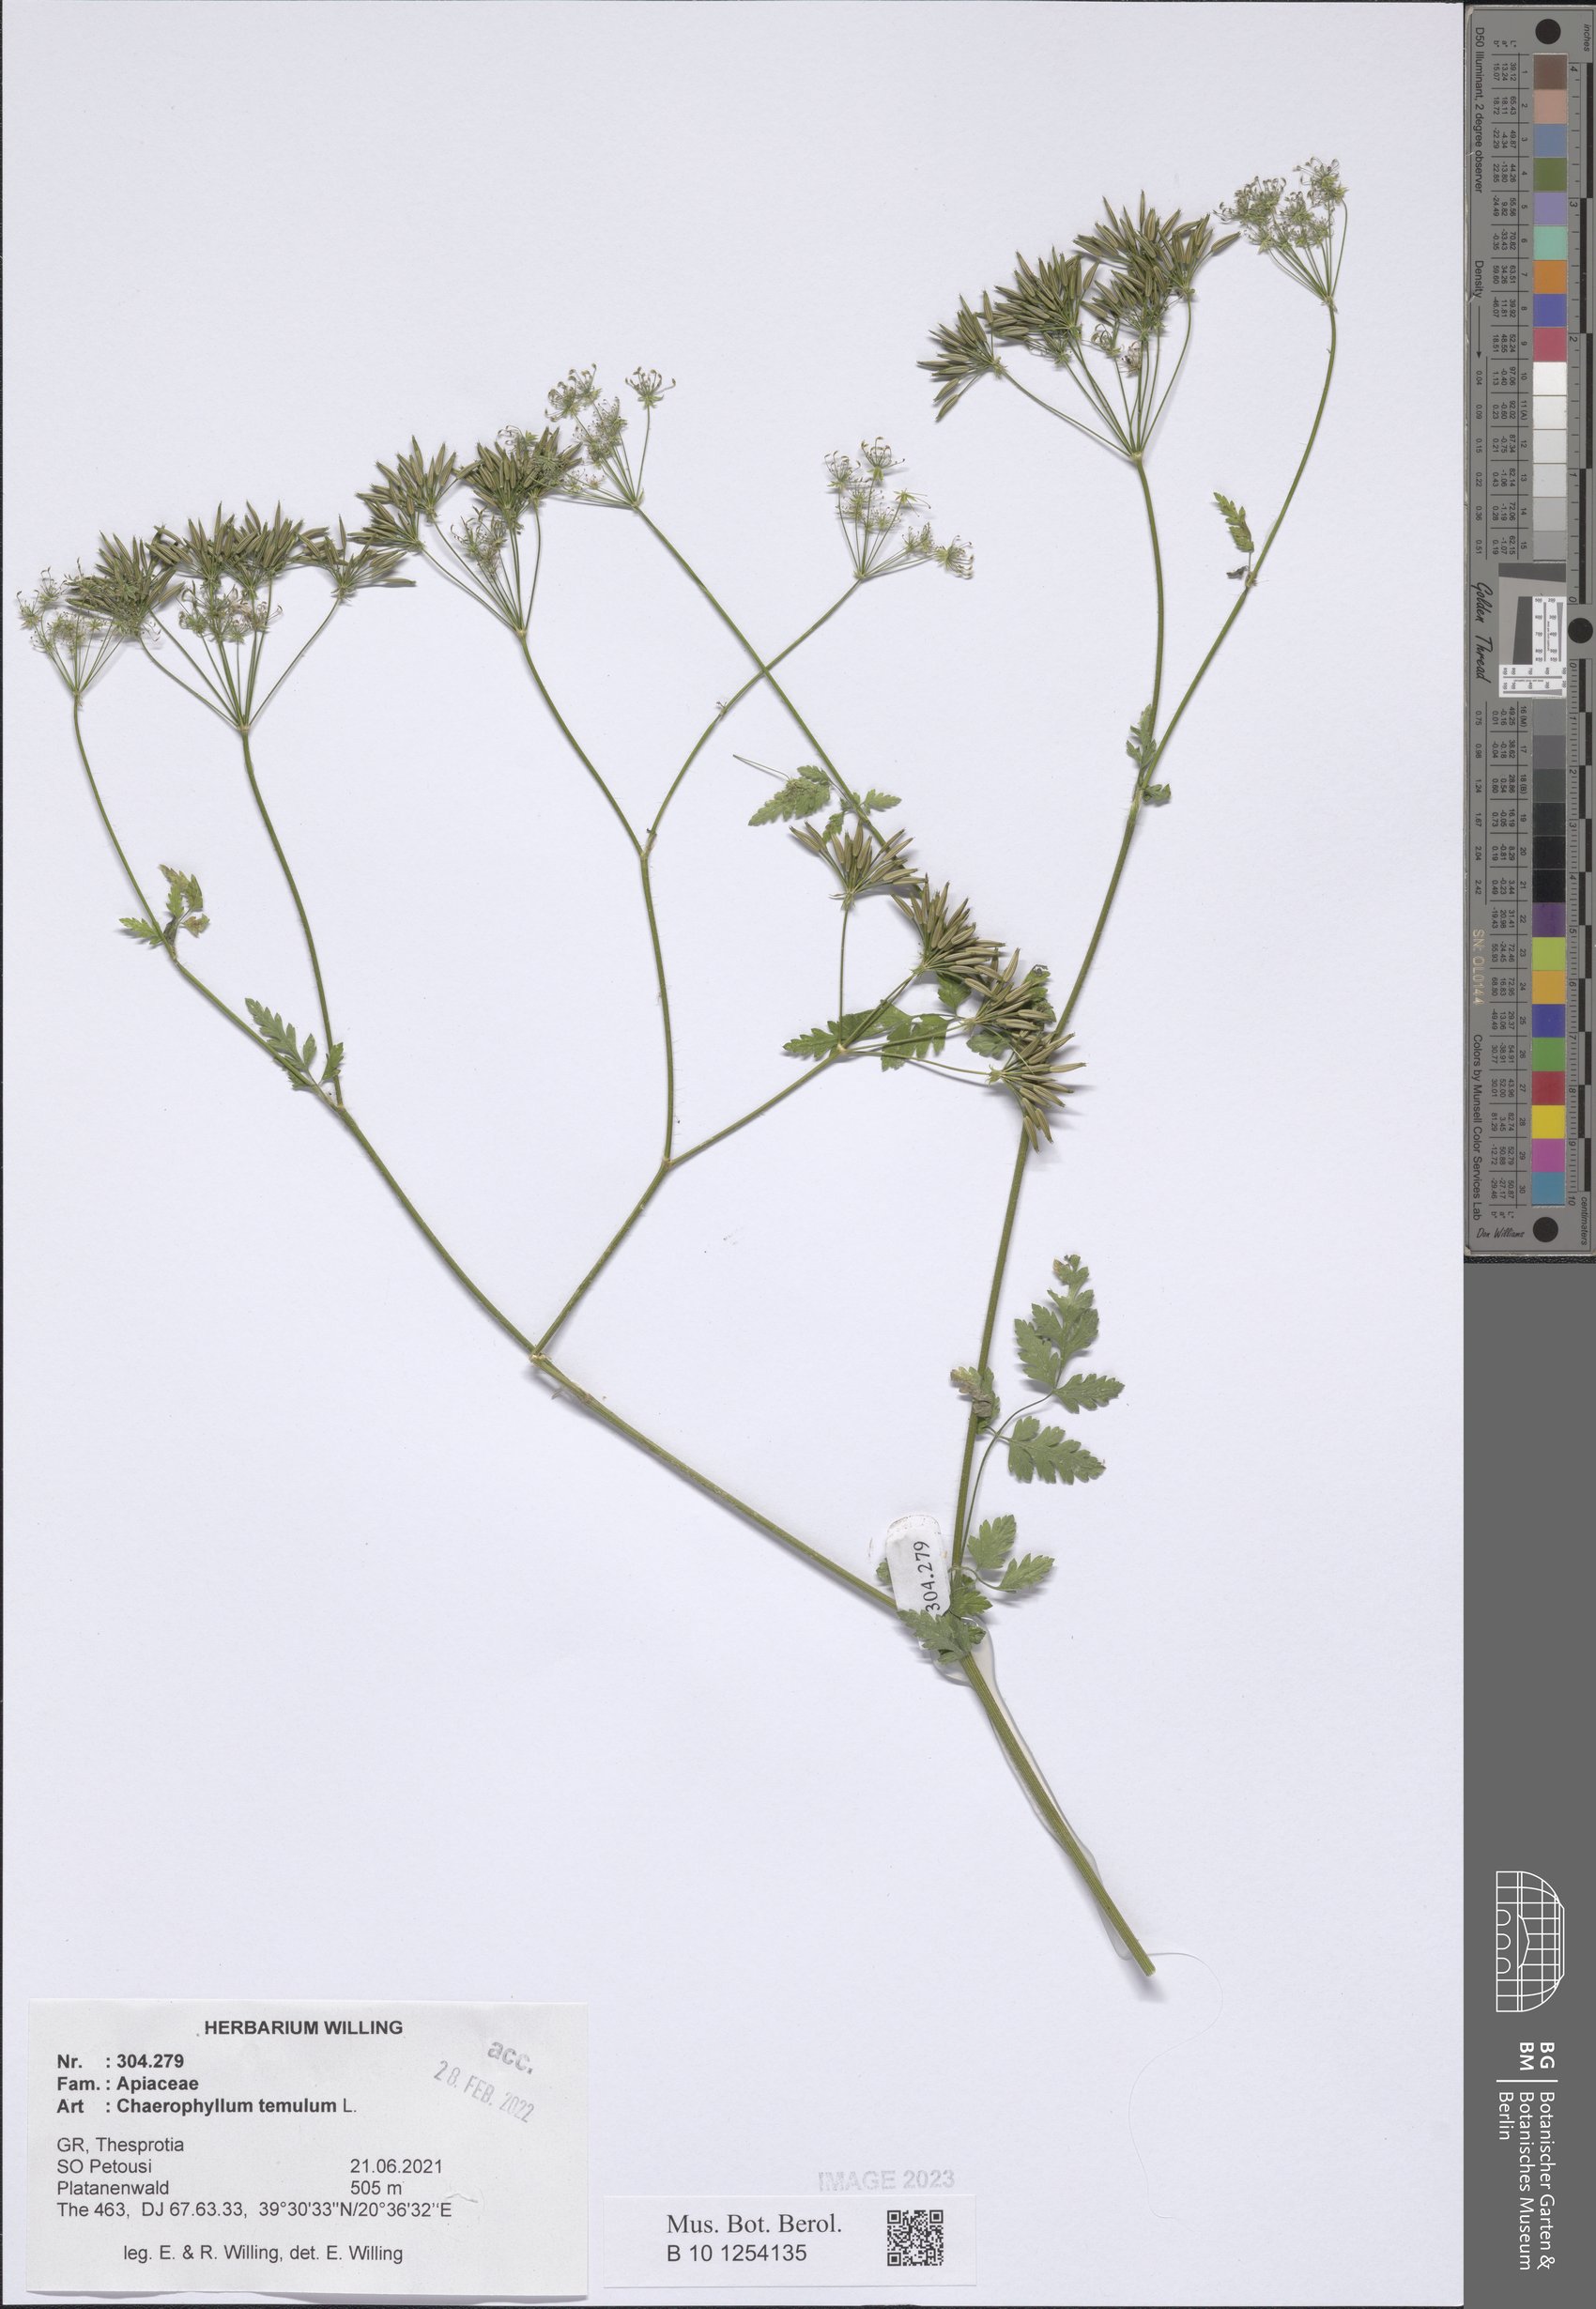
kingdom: Plantae
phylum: Tracheophyta
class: Magnoliopsida
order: Apiales
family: Apiaceae
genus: Chaerophyllum
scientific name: Chaerophyllum temulum
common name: Rough chervil
